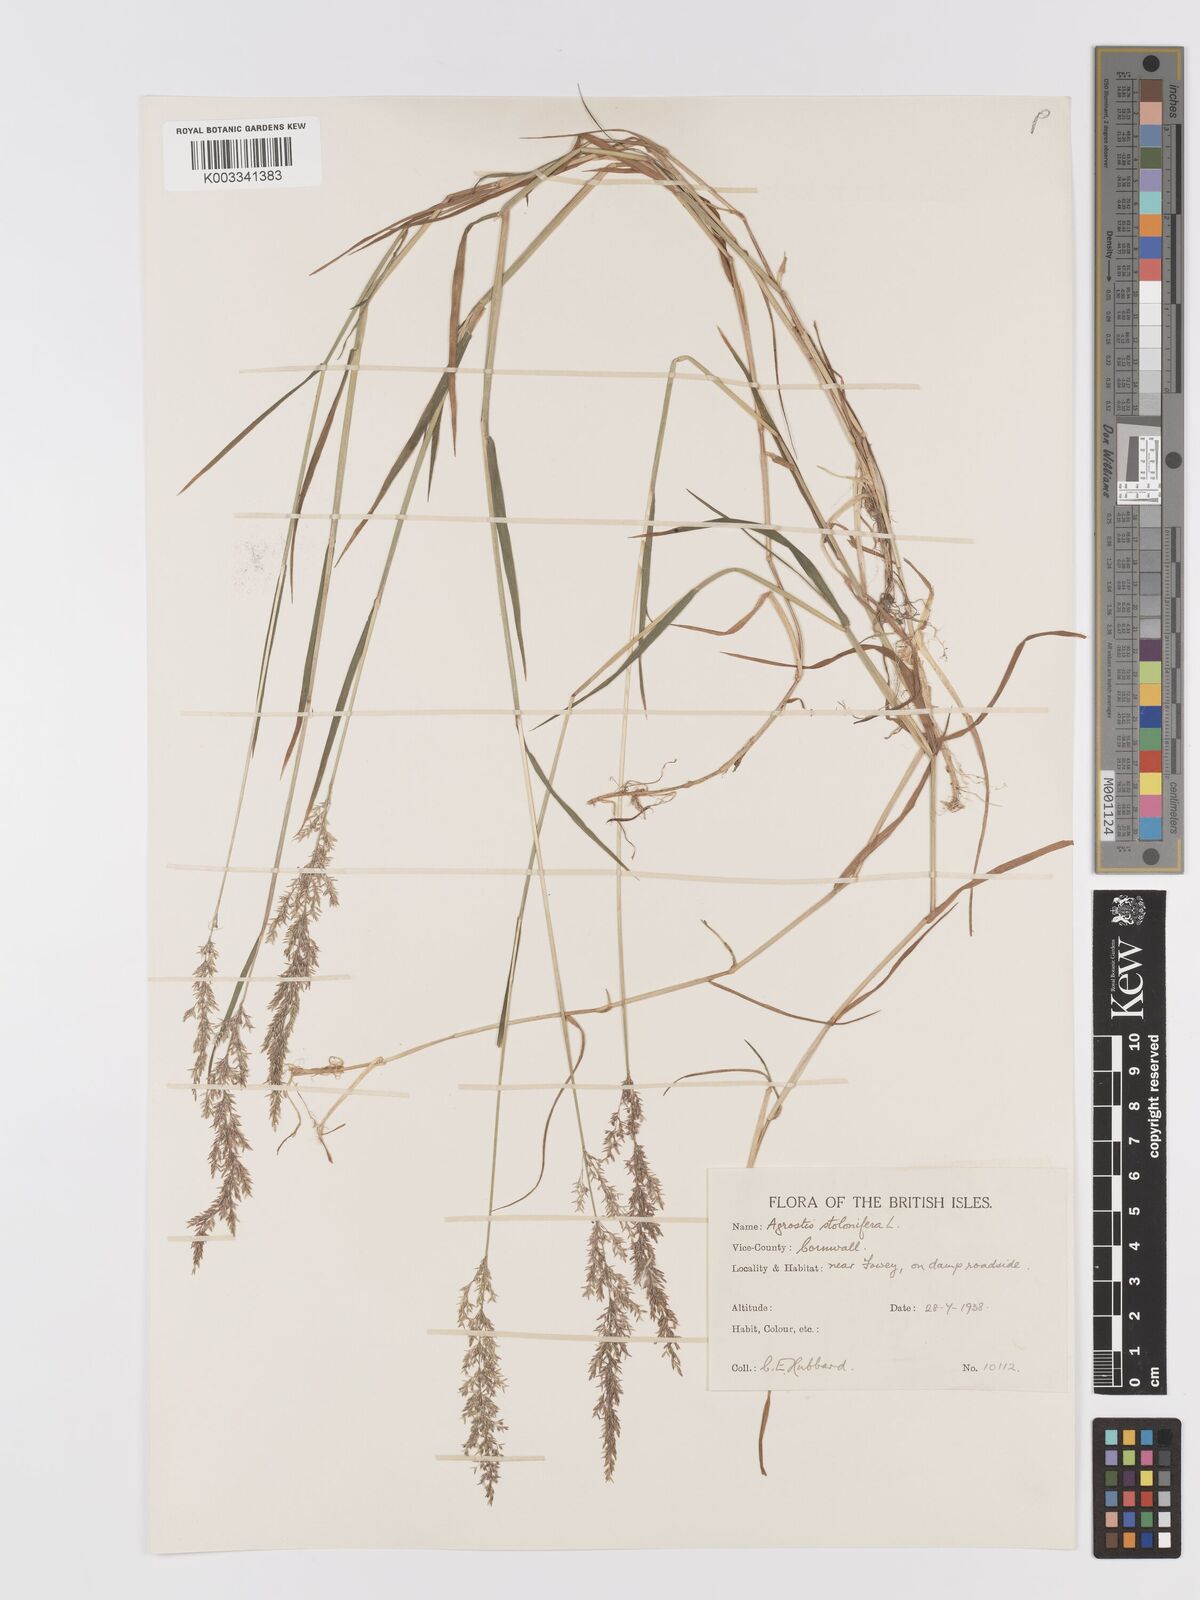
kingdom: Plantae
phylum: Tracheophyta
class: Liliopsida
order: Poales
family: Poaceae
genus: Agrostis
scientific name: Agrostis stolonifera
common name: Creeping bentgrass
